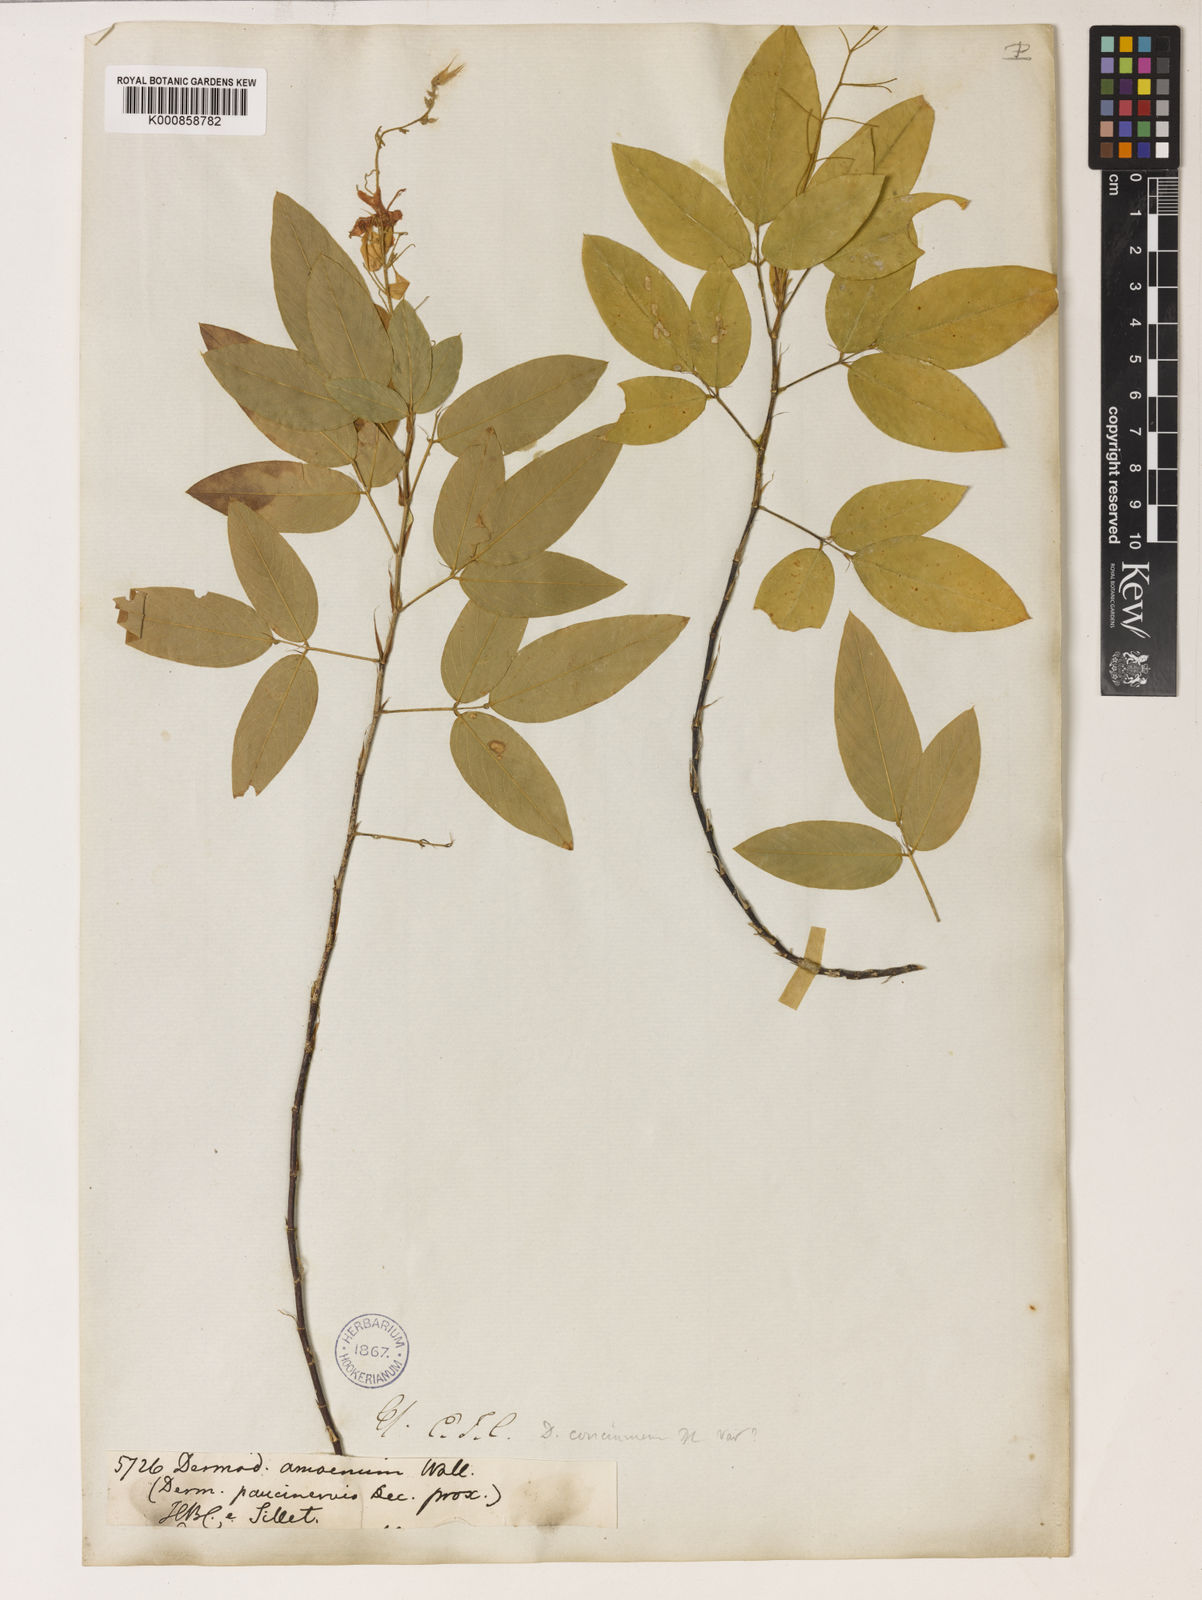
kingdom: Plantae
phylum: Tracheophyta
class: Magnoliopsida
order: Fabales
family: Fabaceae
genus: Tateishia
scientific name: Tateishia concinna
